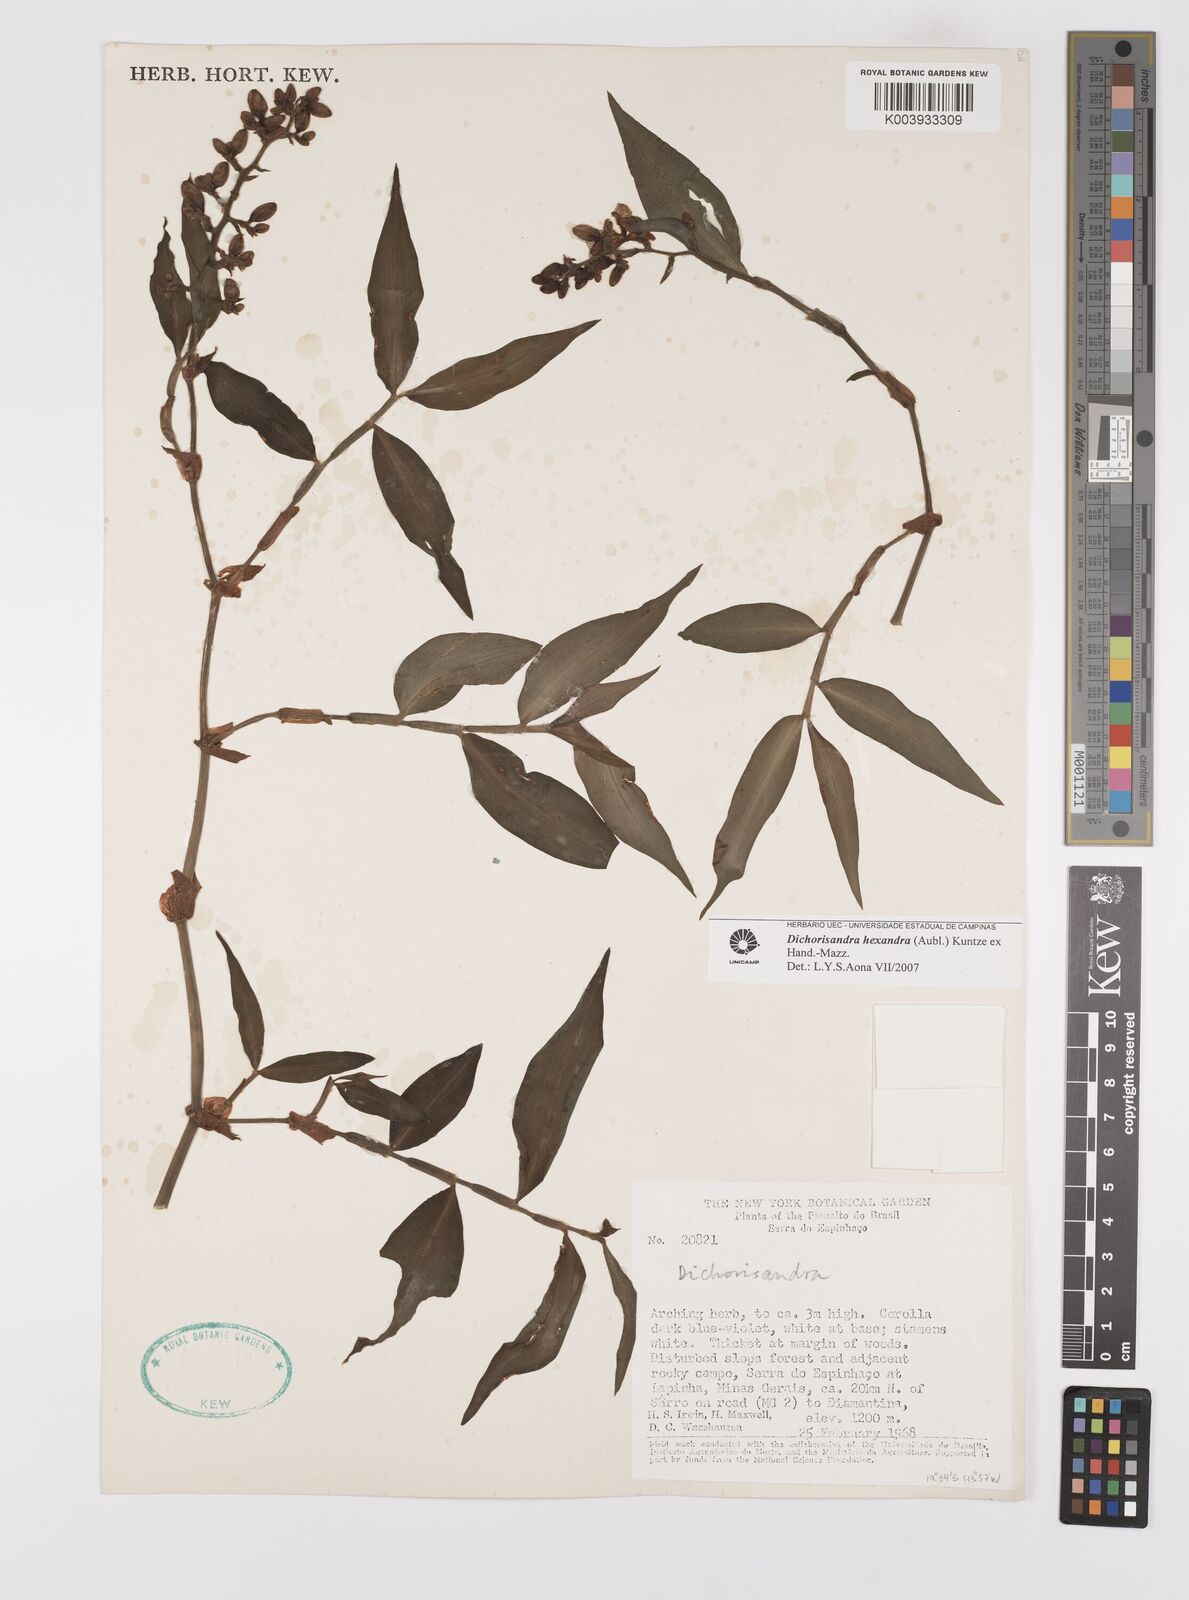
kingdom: Plantae
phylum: Tracheophyta
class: Liliopsida
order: Commelinales
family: Commelinaceae
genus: Dichorisandra
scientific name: Dichorisandra hexandra
